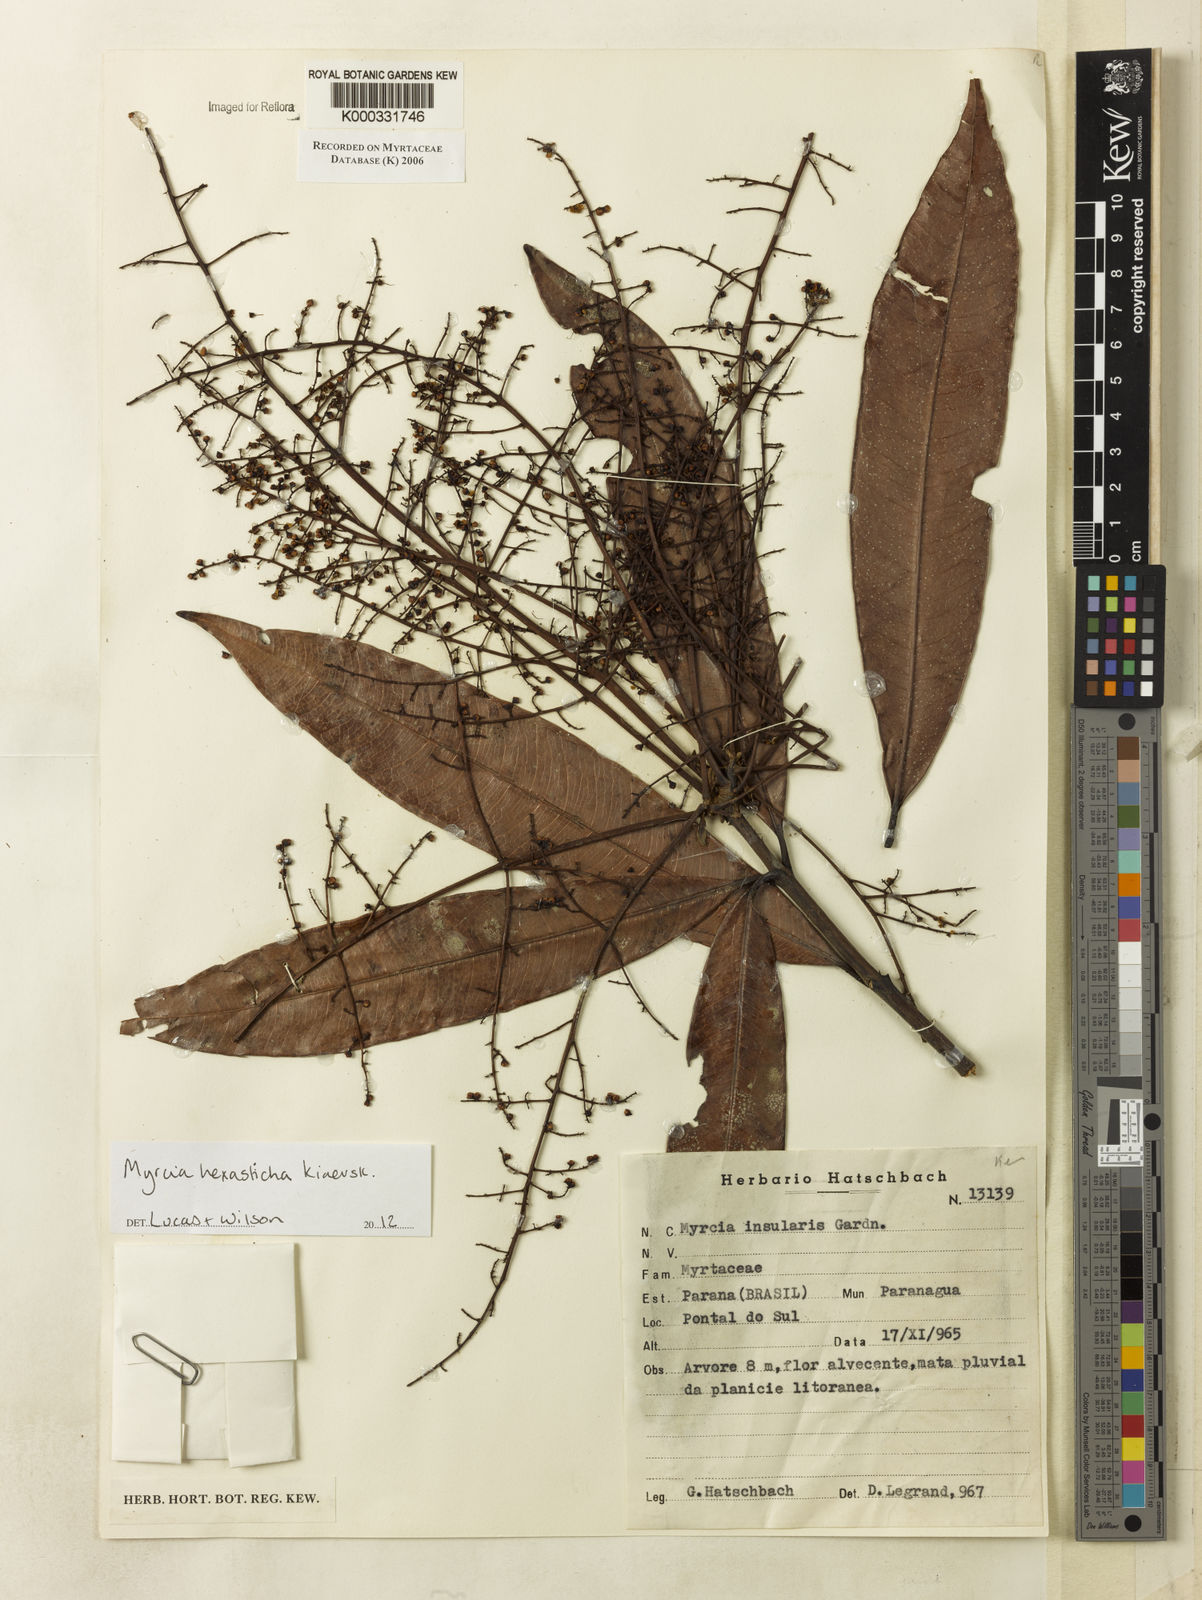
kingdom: Plantae
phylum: Tracheophyta
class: Magnoliopsida
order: Myrtales
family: Myrtaceae
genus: Myrcia
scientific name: Myrcia insularis
